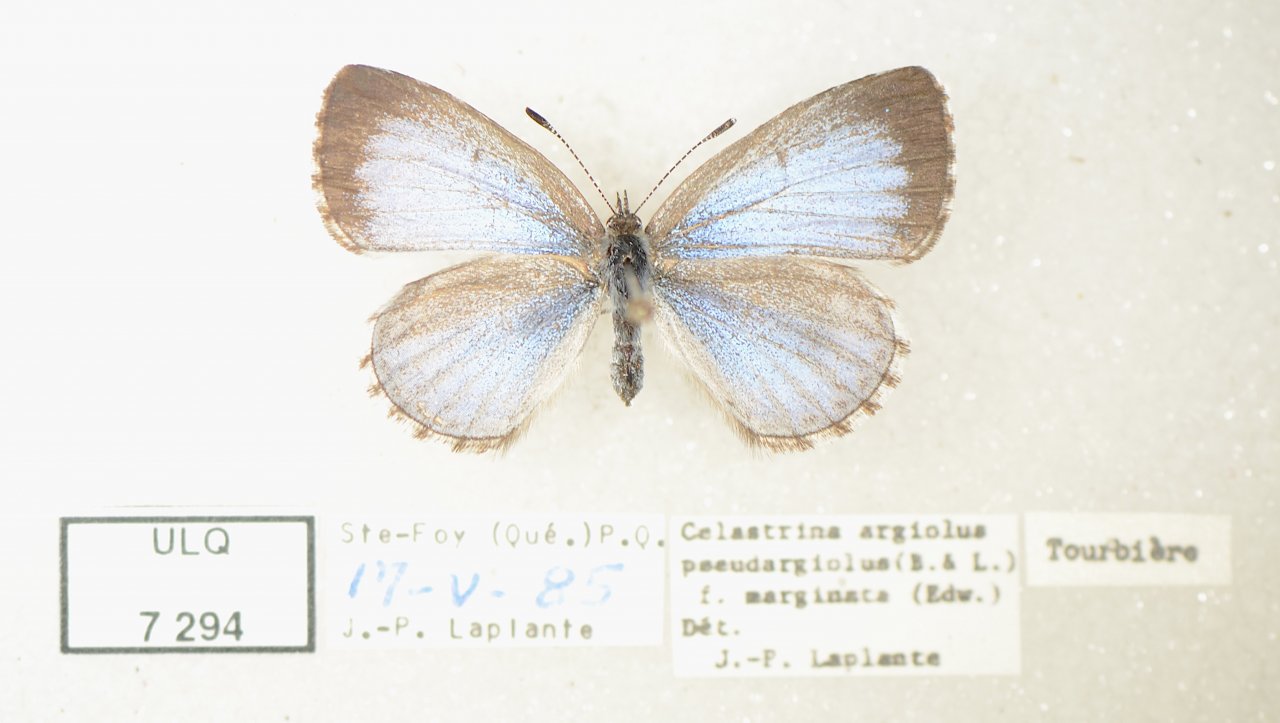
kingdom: Animalia
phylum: Arthropoda
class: Insecta
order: Lepidoptera
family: Lycaenidae
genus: Celastrina
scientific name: Celastrina lucia
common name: Northern Spring Azure
